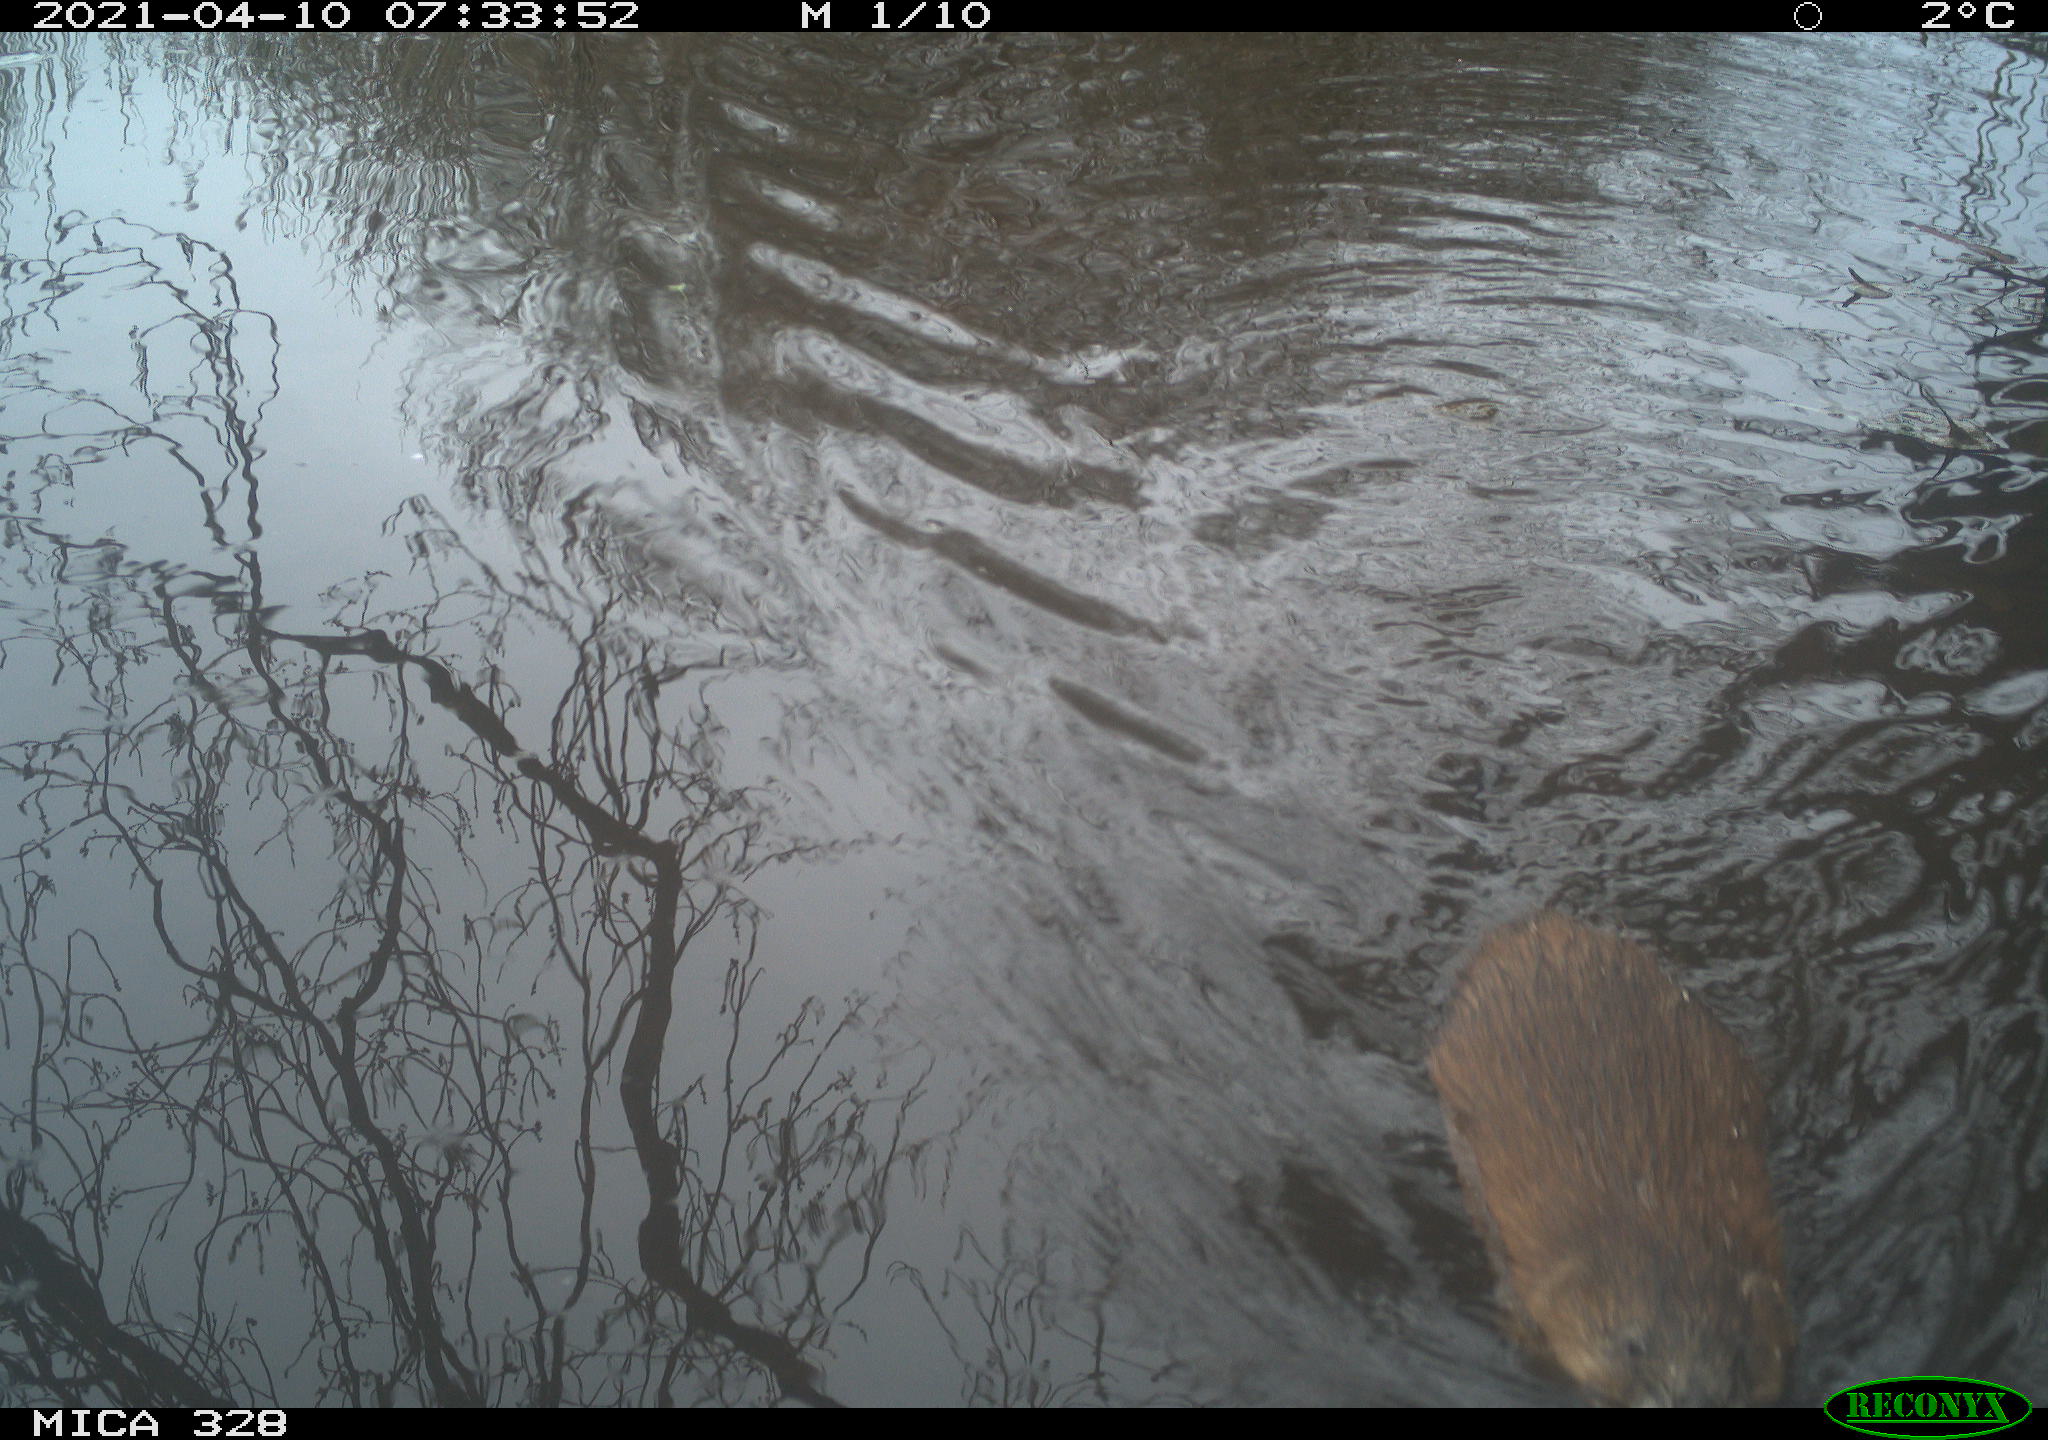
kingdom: Animalia
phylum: Chordata
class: Mammalia
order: Rodentia
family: Cricetidae
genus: Ondatra
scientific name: Ondatra zibethicus
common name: Muskrat
